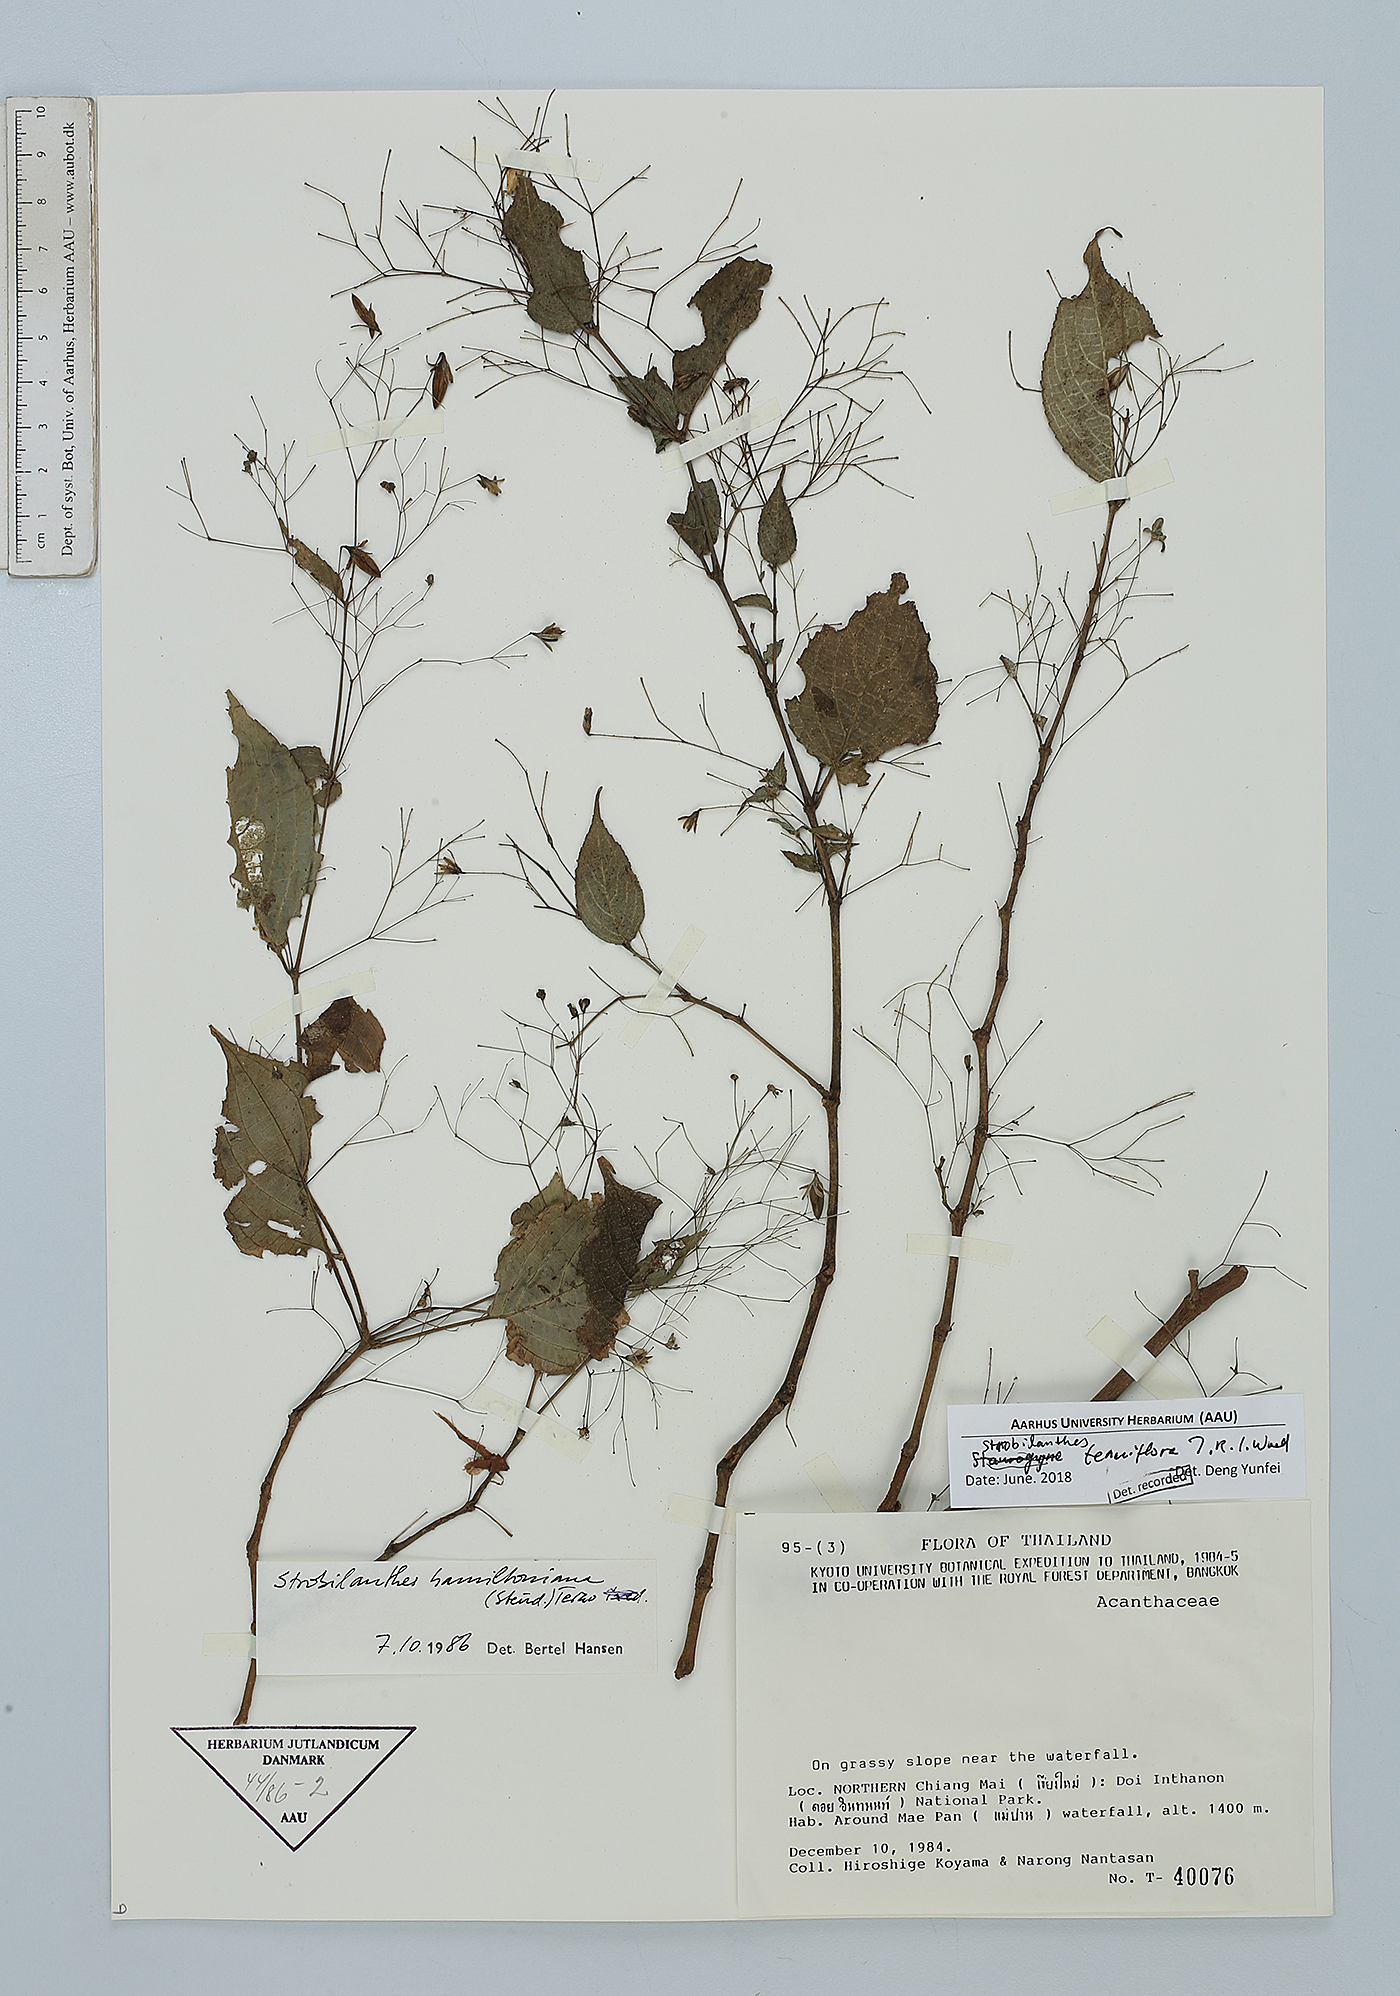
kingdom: Plantae
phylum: Tracheophyta
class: Magnoliopsida
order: Lamiales
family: Acanthaceae
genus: Strobilanthes
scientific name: Strobilanthes tenuiflora
